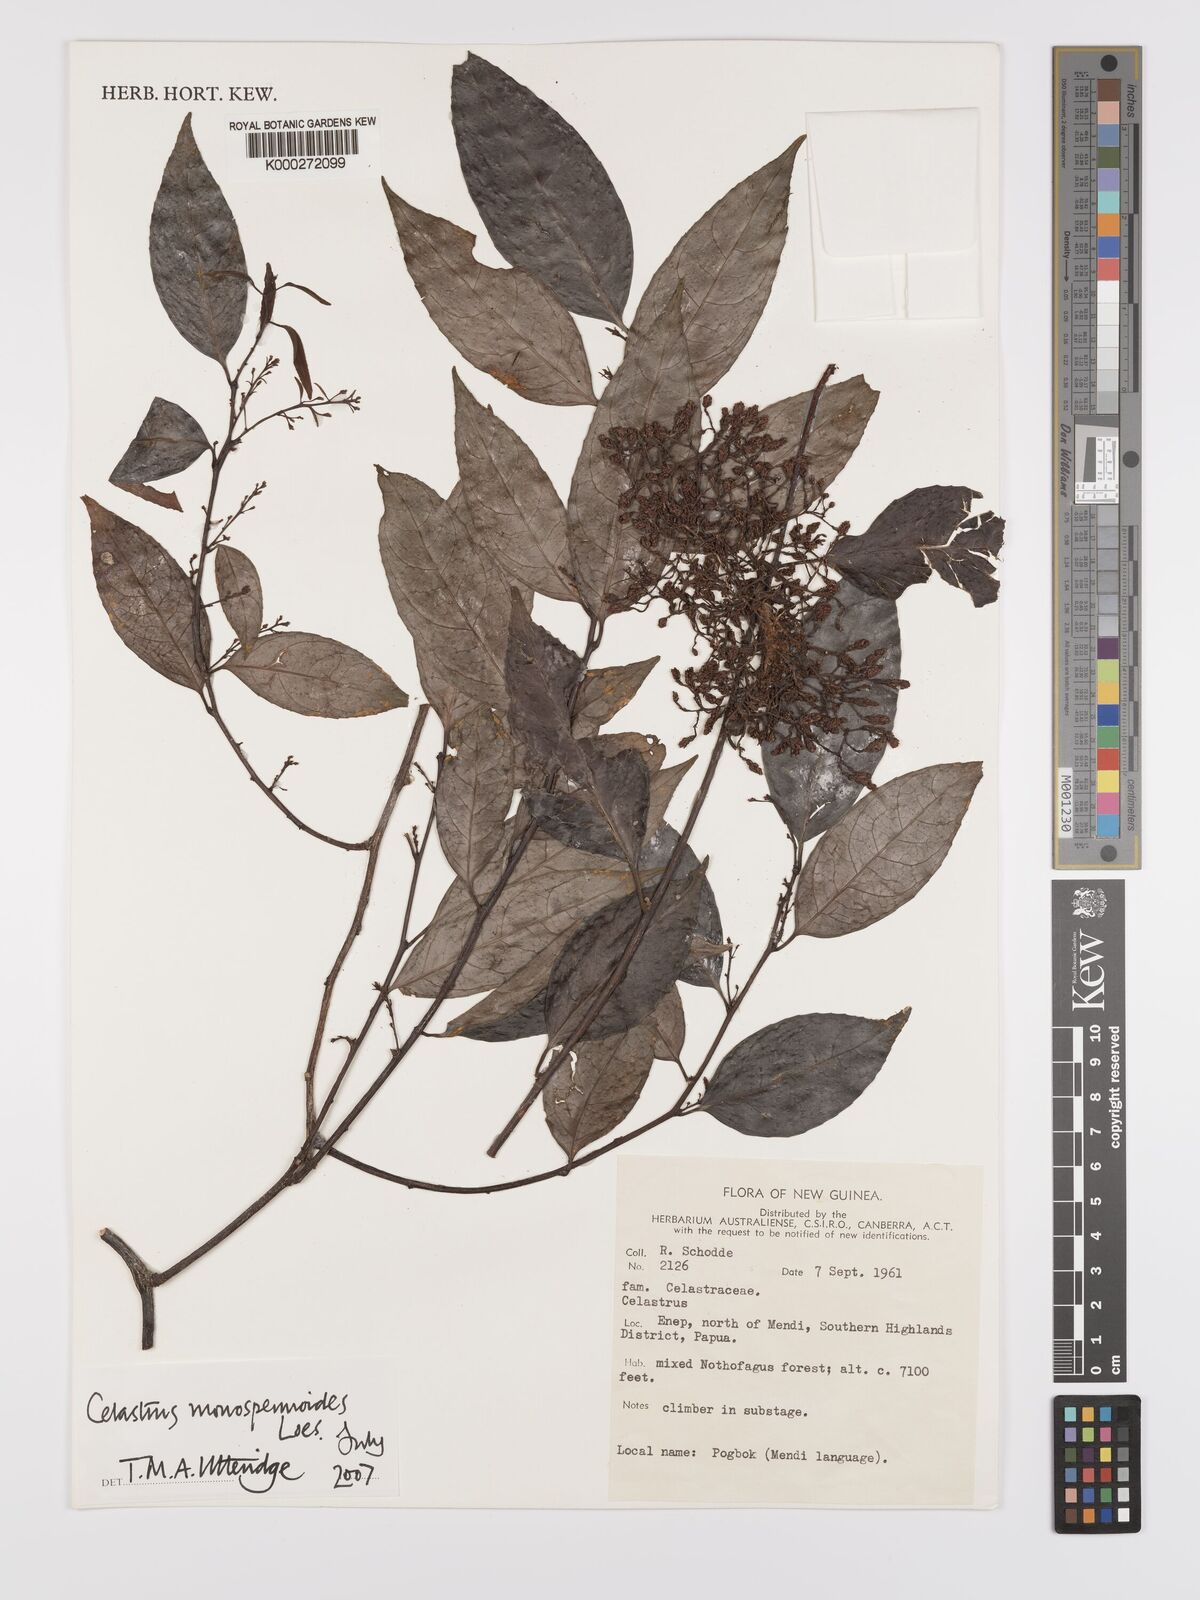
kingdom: Plantae
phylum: Tracheophyta
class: Magnoliopsida
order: Celastrales
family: Celastraceae
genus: Celastrus
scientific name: Celastrus monospermoides
